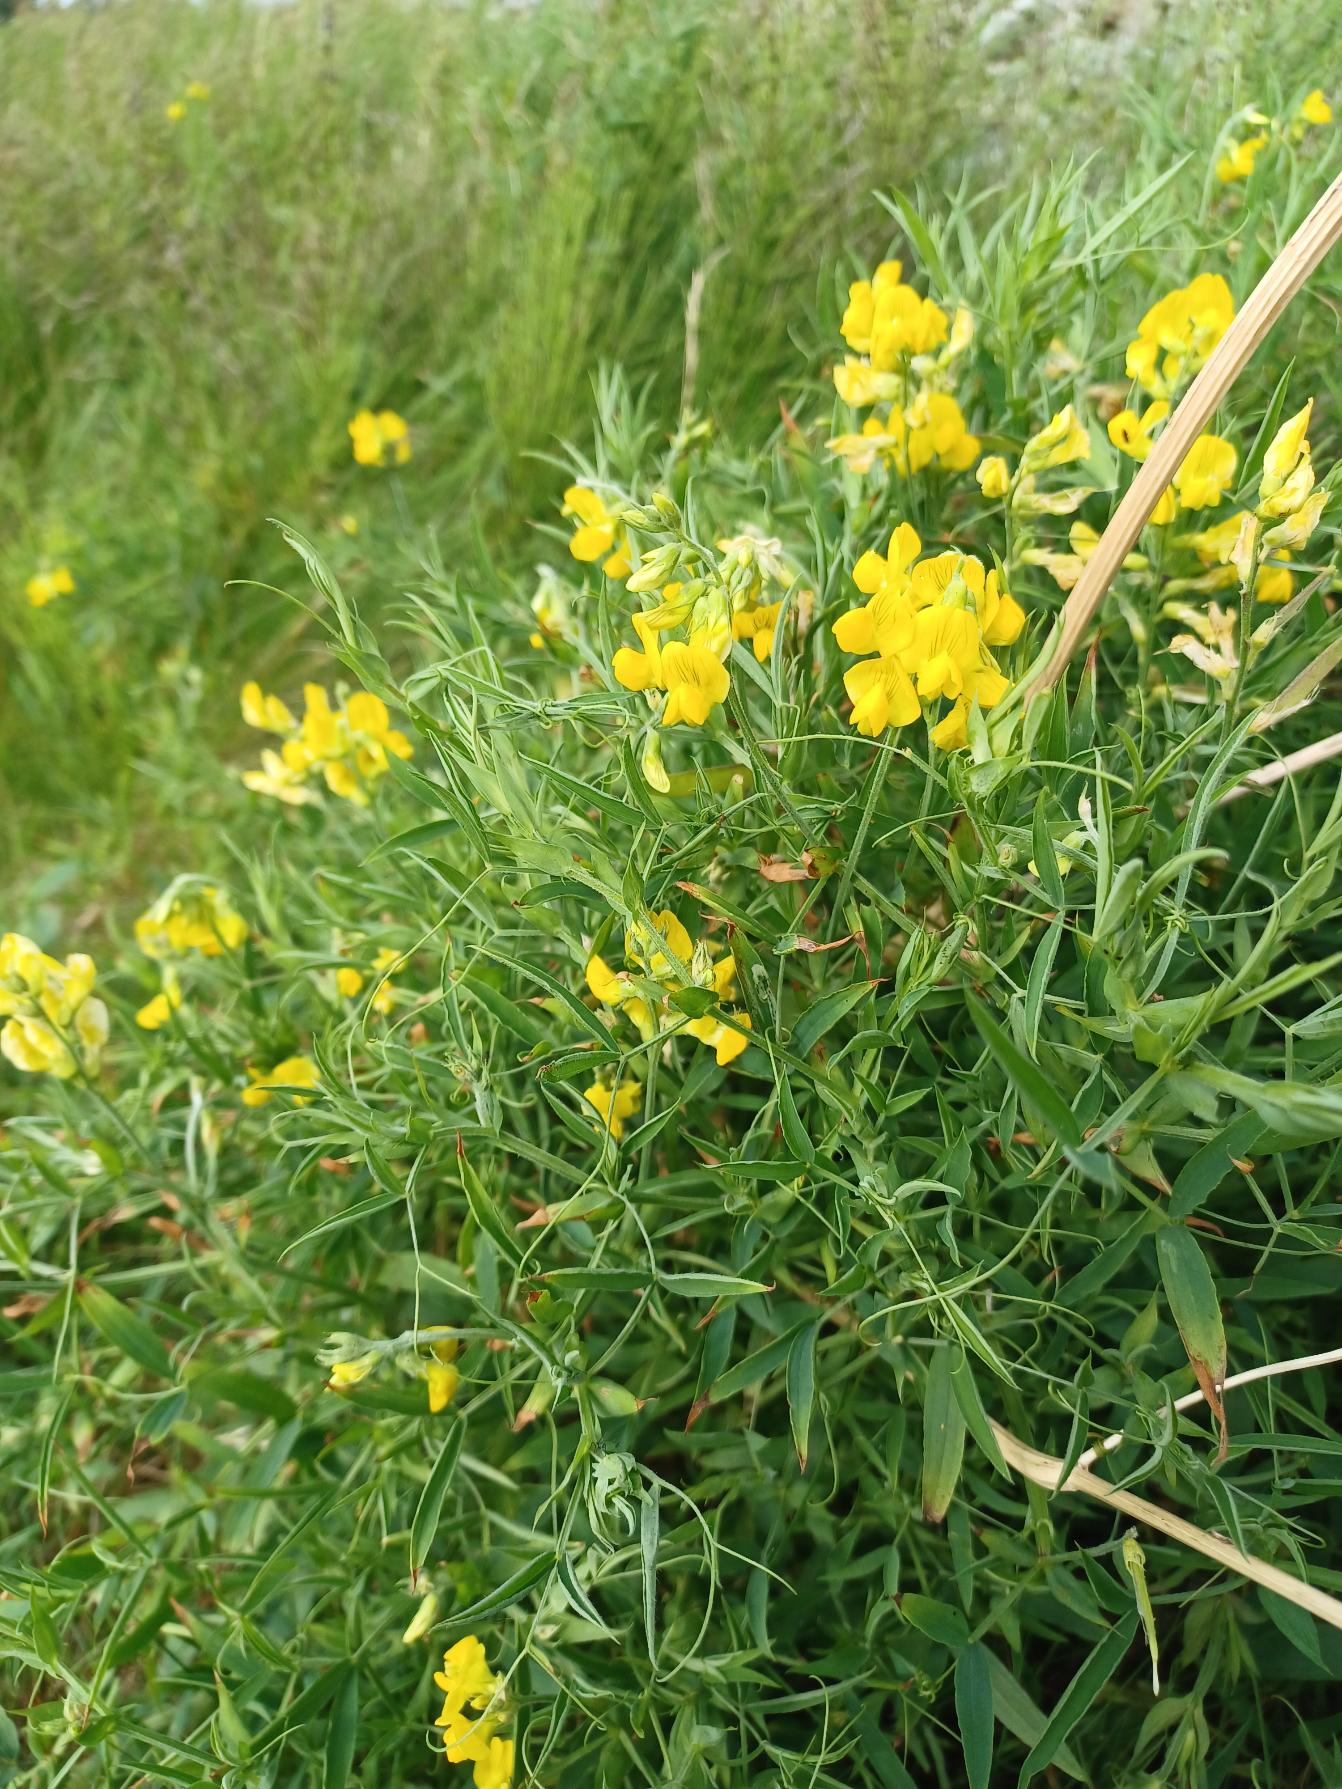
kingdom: Plantae
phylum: Tracheophyta
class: Magnoliopsida
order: Fabales
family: Fabaceae
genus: Lathyrus
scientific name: Lathyrus pratensis
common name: Gul fladbælg
